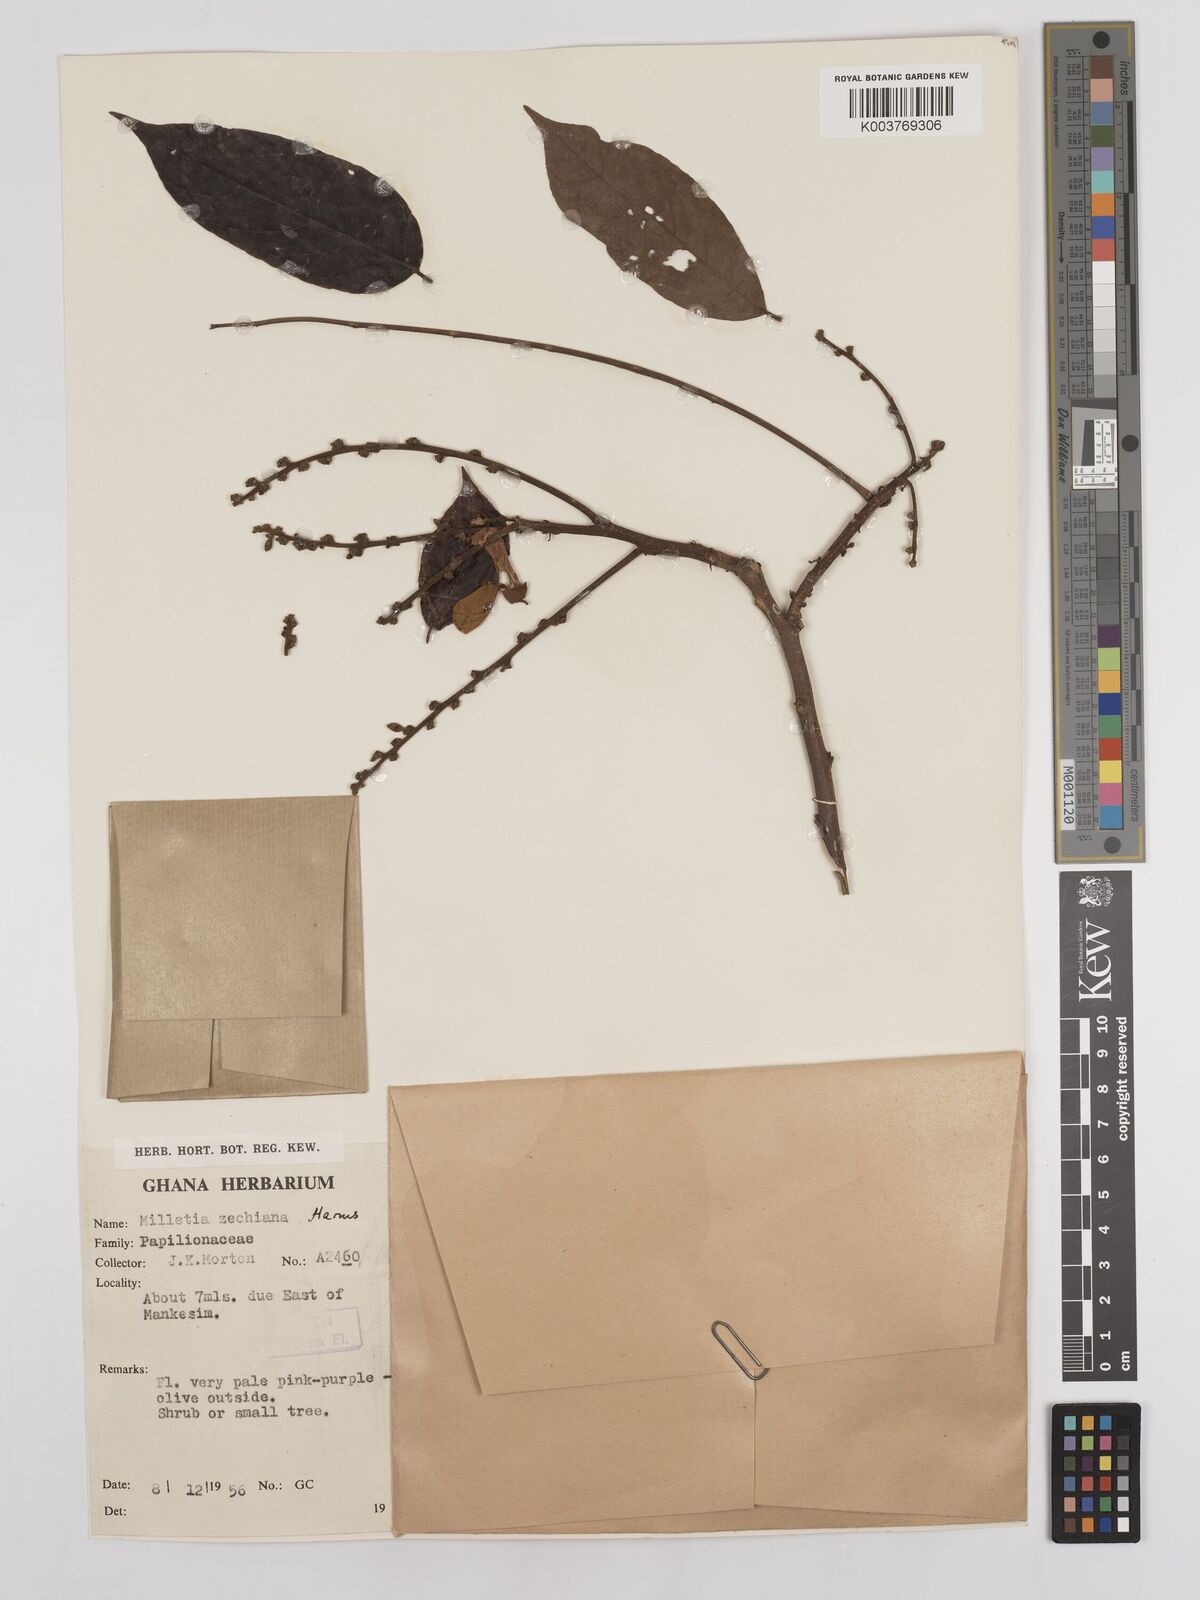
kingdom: Plantae
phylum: Tracheophyta
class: Magnoliopsida
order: Fabales
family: Fabaceae
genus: Millettia
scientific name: Millettia zechiana
